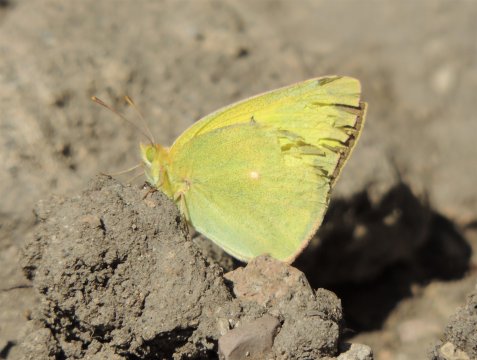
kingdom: Animalia
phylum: Arthropoda
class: Insecta
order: Lepidoptera
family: Pieridae
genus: Colias
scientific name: Colias christina
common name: Christina Sulphur
